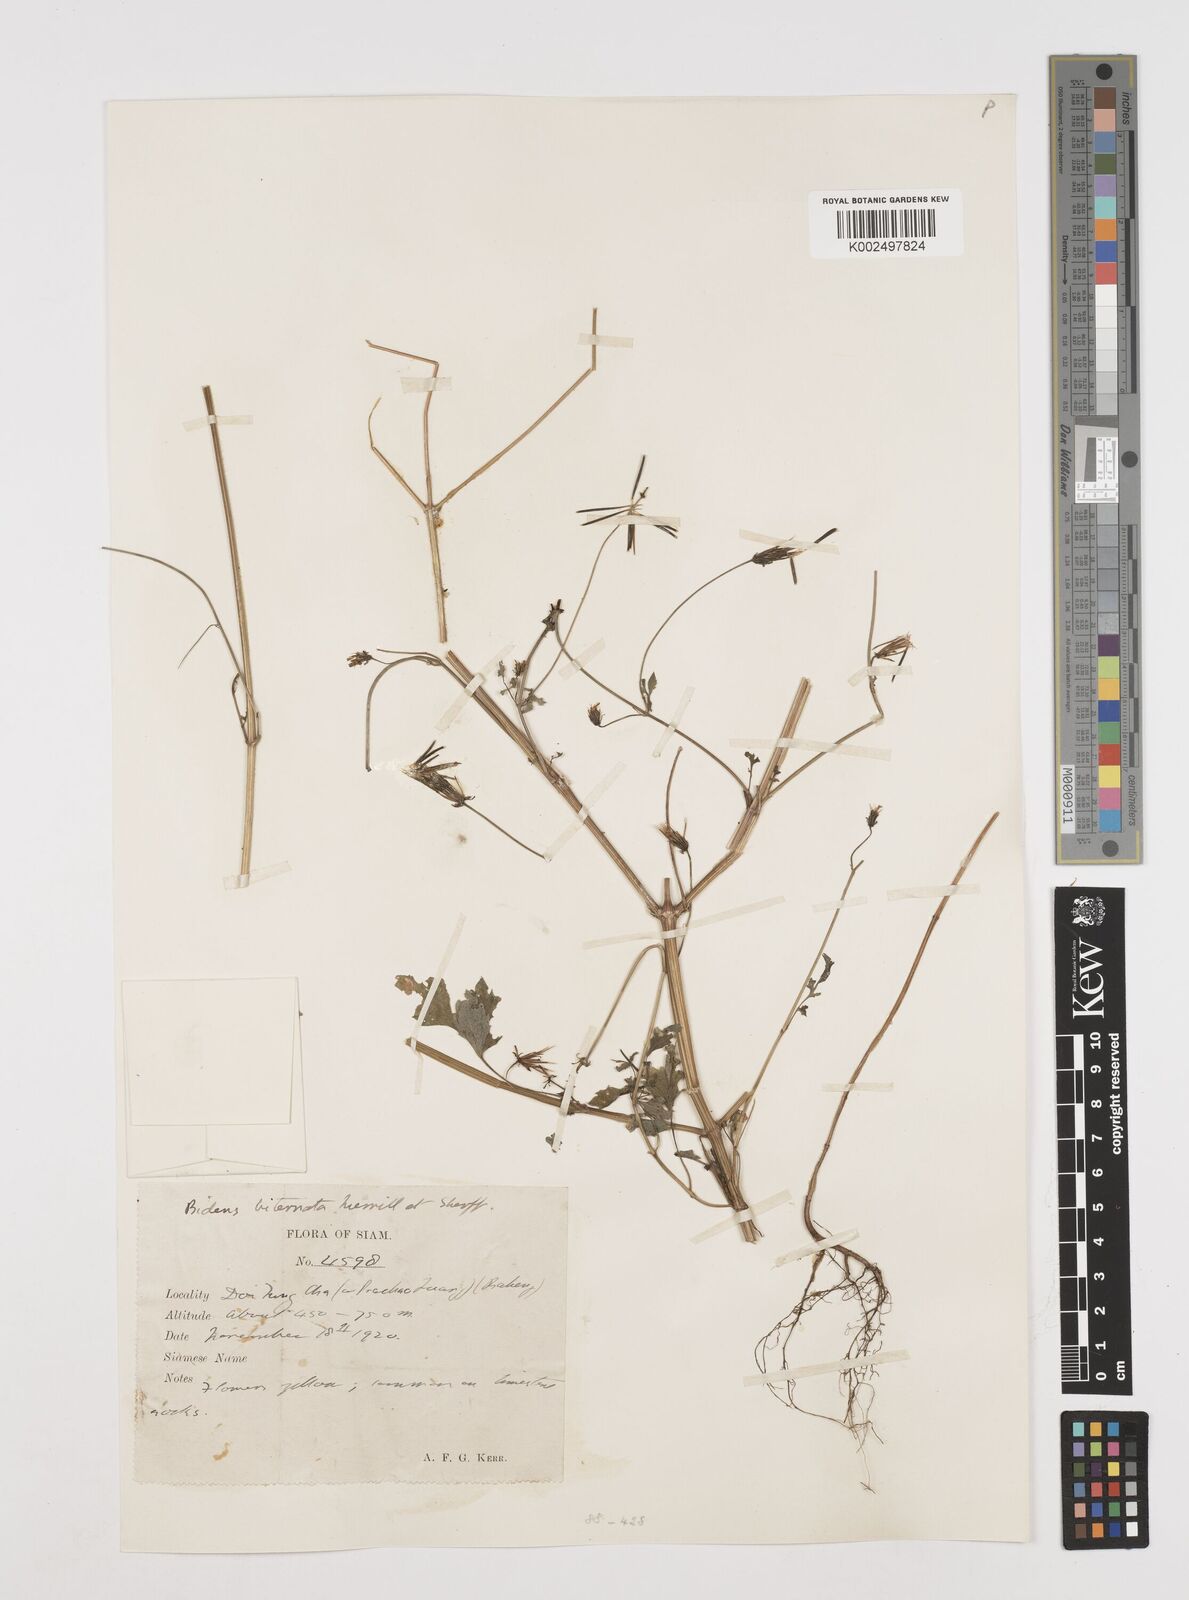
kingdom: Plantae
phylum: Tracheophyta
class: Magnoliopsida
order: Asterales
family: Asteraceae
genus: Bidens
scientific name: Bidens biternata
